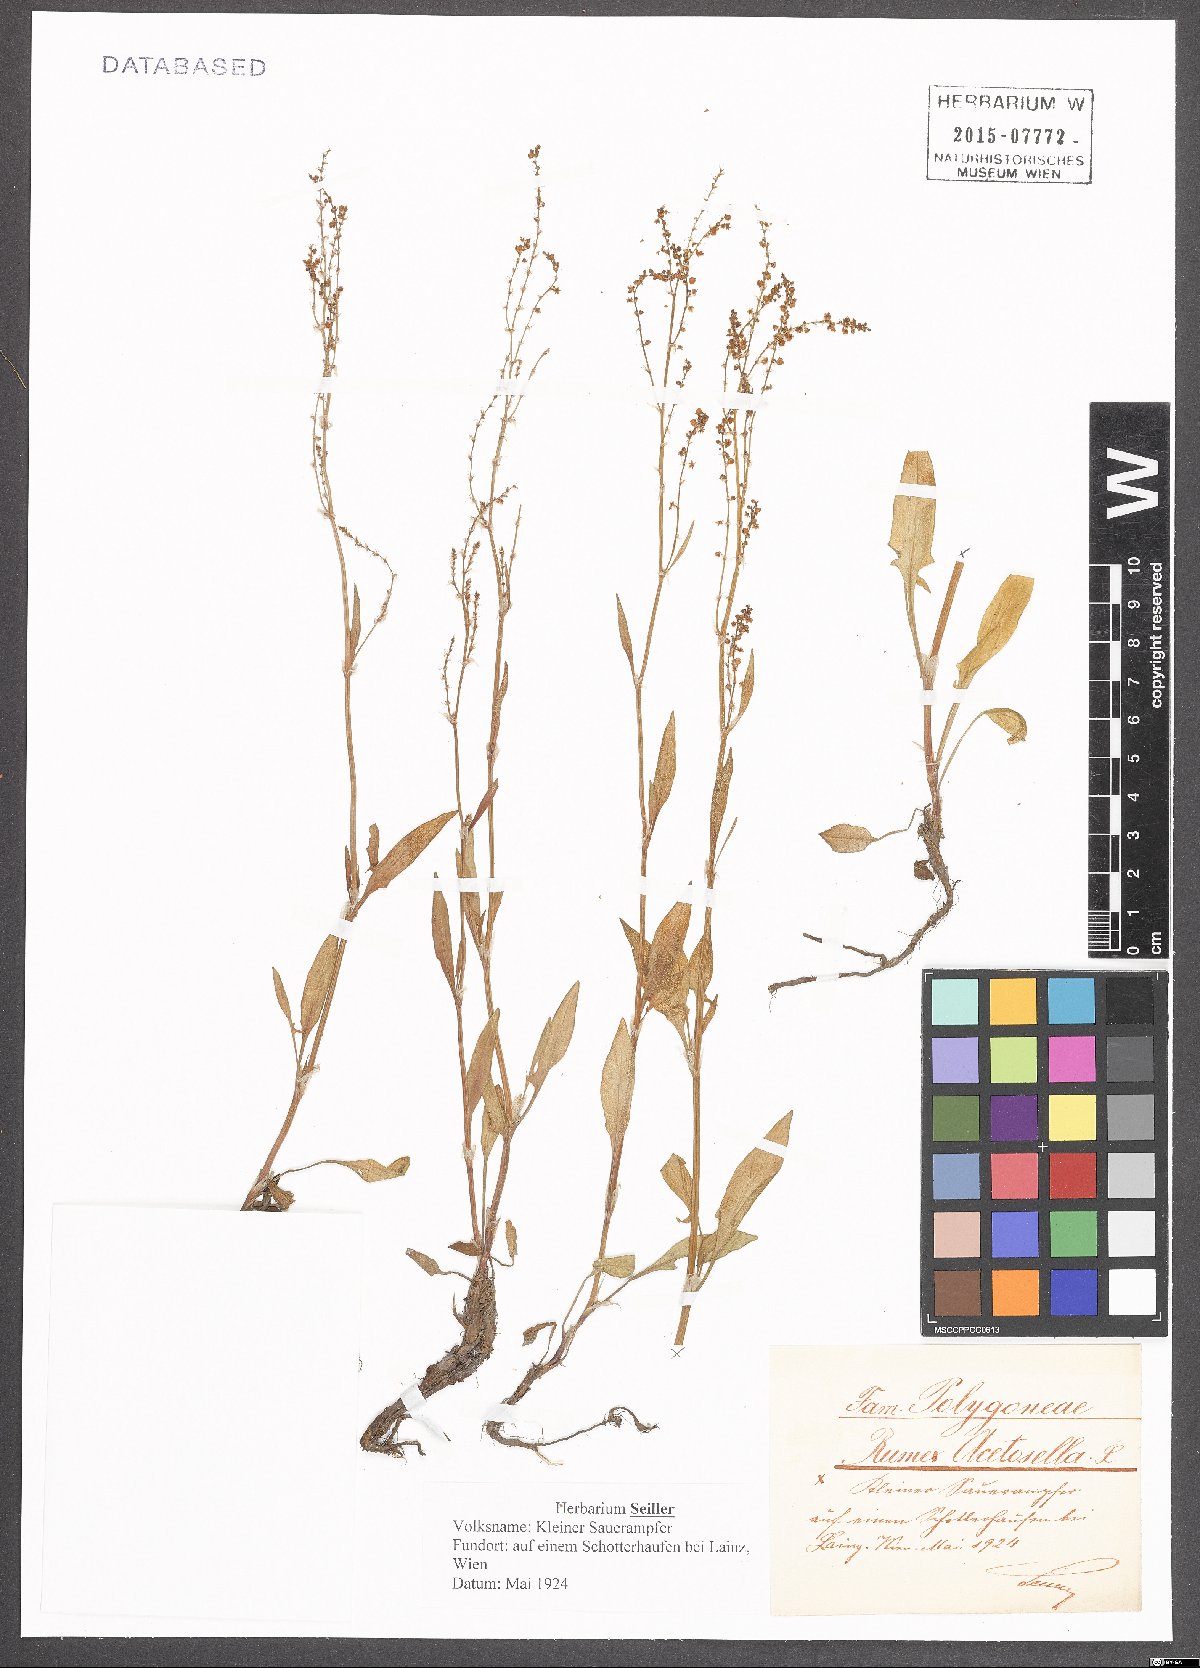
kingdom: Plantae
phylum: Tracheophyta
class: Magnoliopsida
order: Caryophyllales
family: Polygonaceae
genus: Rumex
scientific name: Rumex acetosella
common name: Common sheep sorrel
